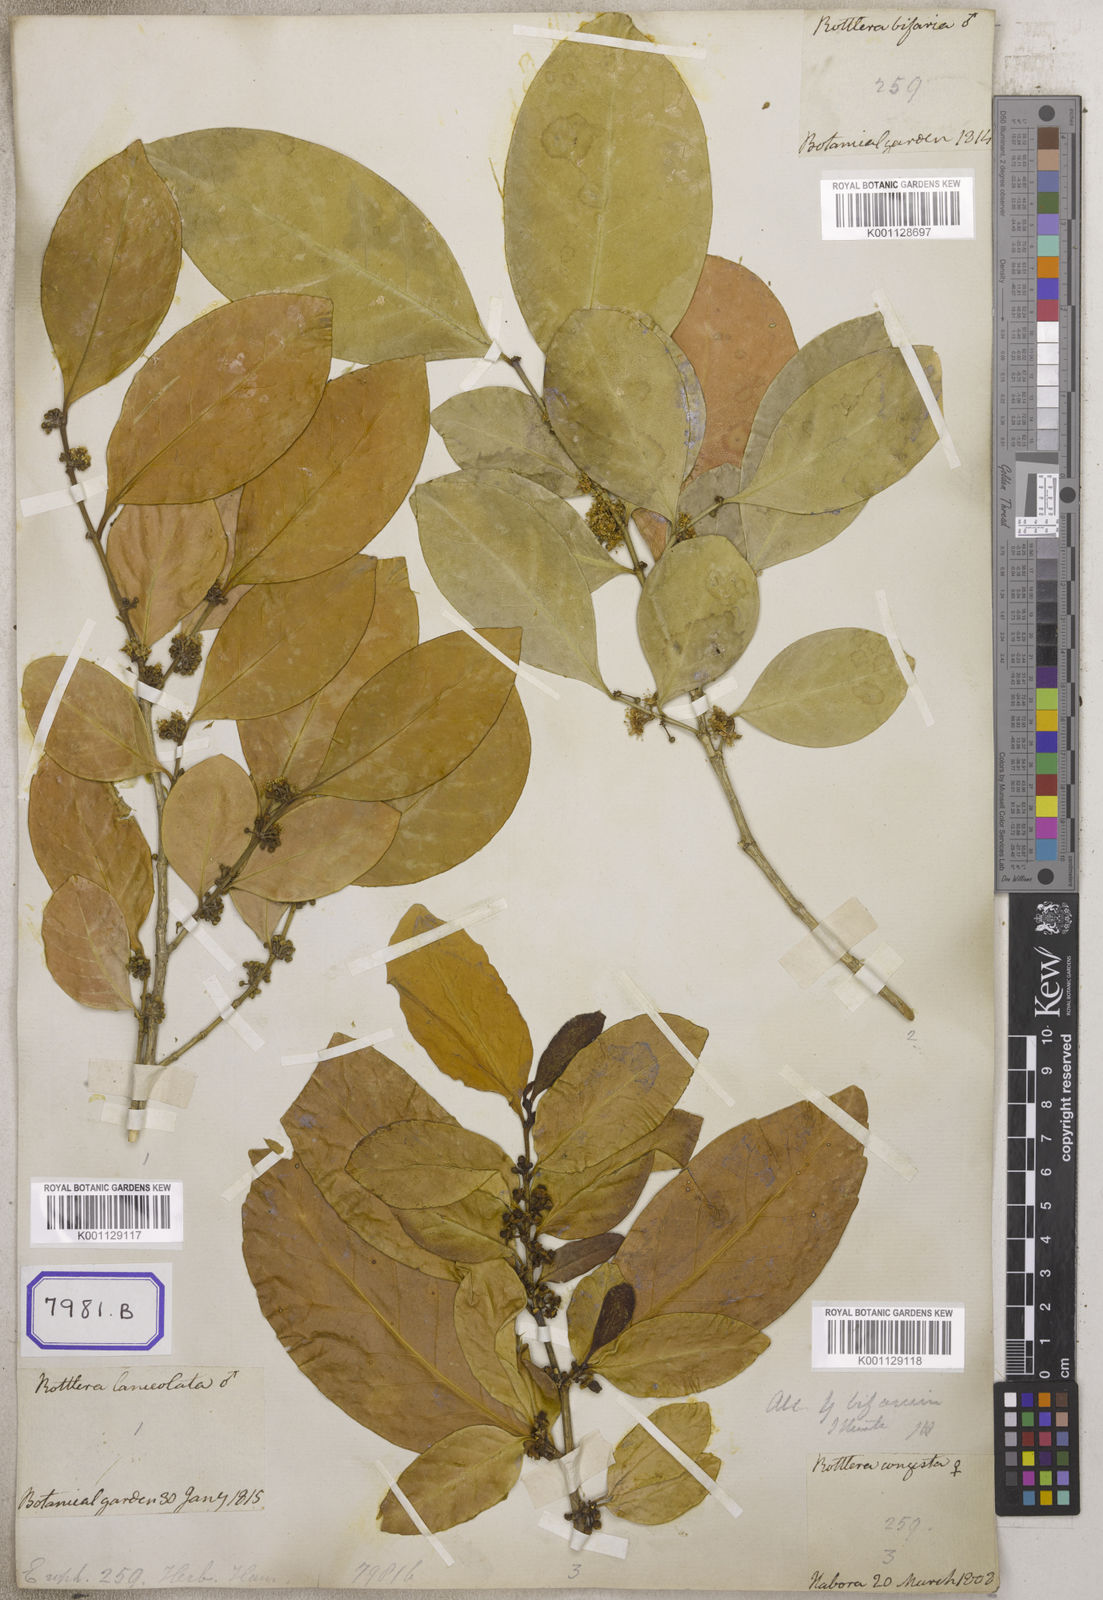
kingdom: Plantae
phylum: Tracheophyta
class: Magnoliopsida
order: Malpighiales
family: Euphorbiaceae
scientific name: Euphorbiaceae
